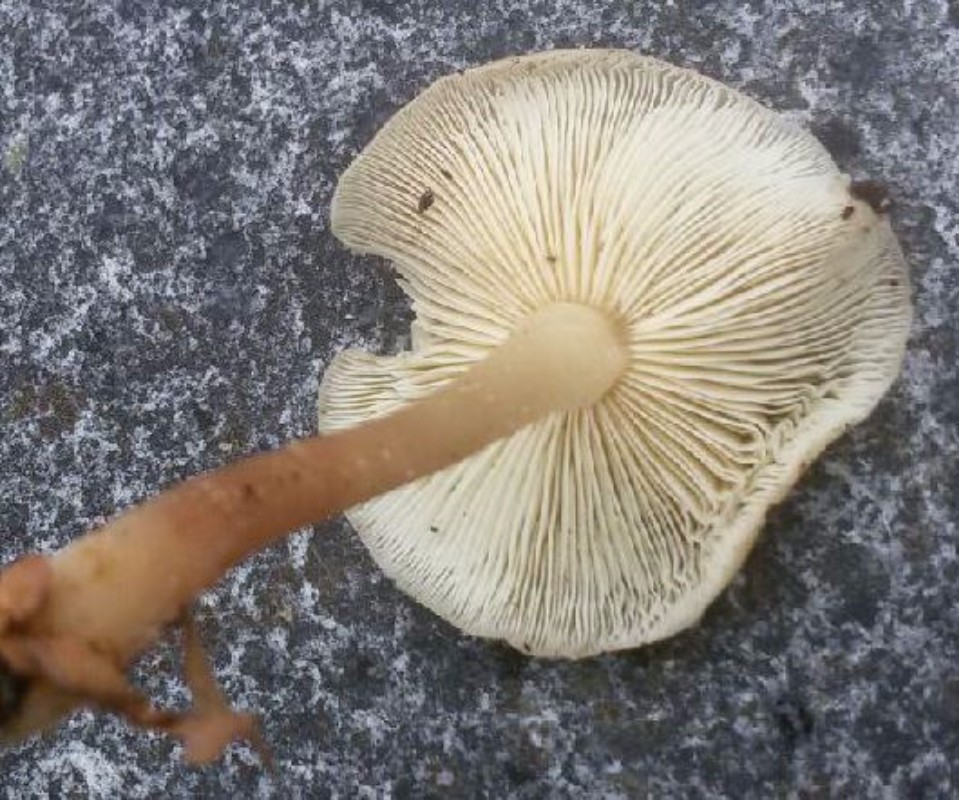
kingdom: Fungi
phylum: Basidiomycota
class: Agaricomycetes
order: Agaricales
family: Omphalotaceae
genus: Gymnopus
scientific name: Gymnopus ocior
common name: mørk fladhat
